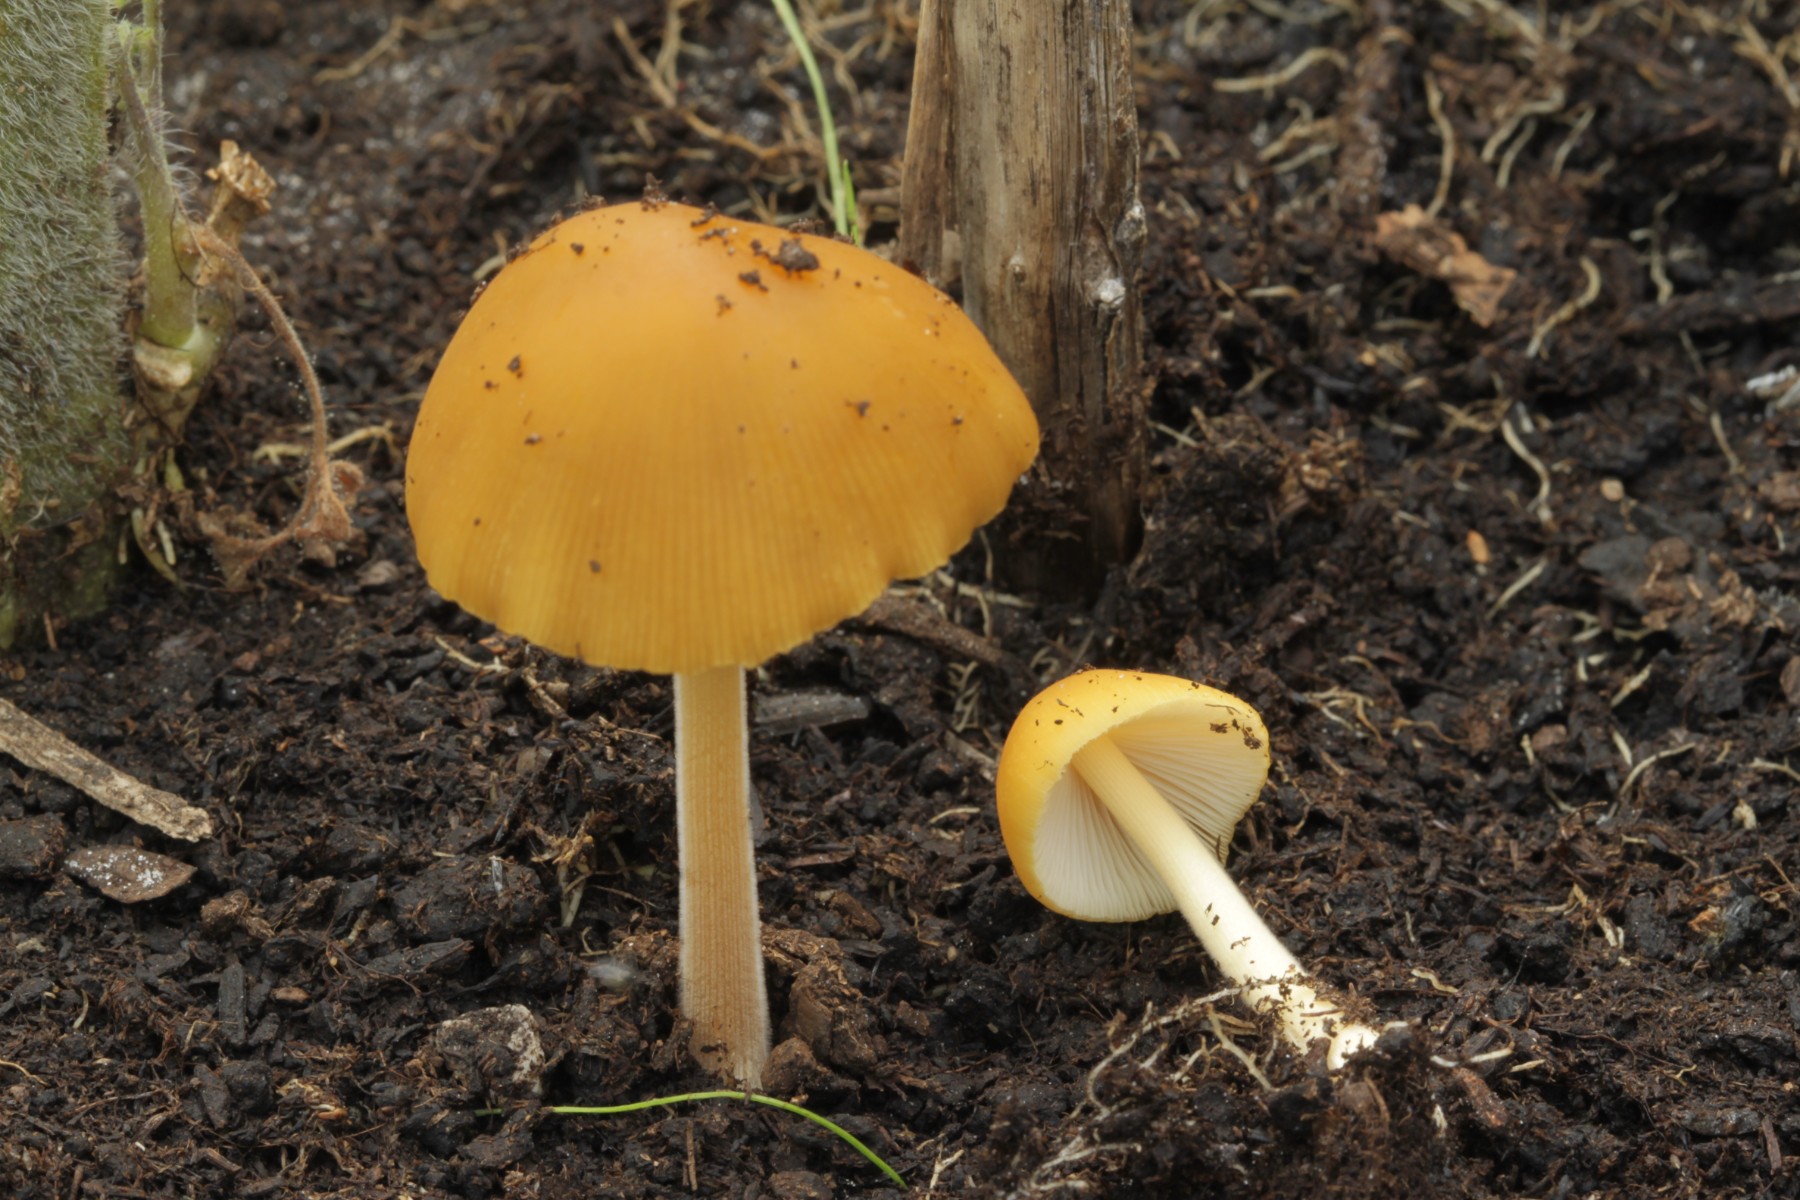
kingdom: Fungi
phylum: Basidiomycota
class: Agaricomycetes
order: Agaricales
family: Bolbitiaceae
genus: Conocybe
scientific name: Conocybe aurea
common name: gylden keglehat
